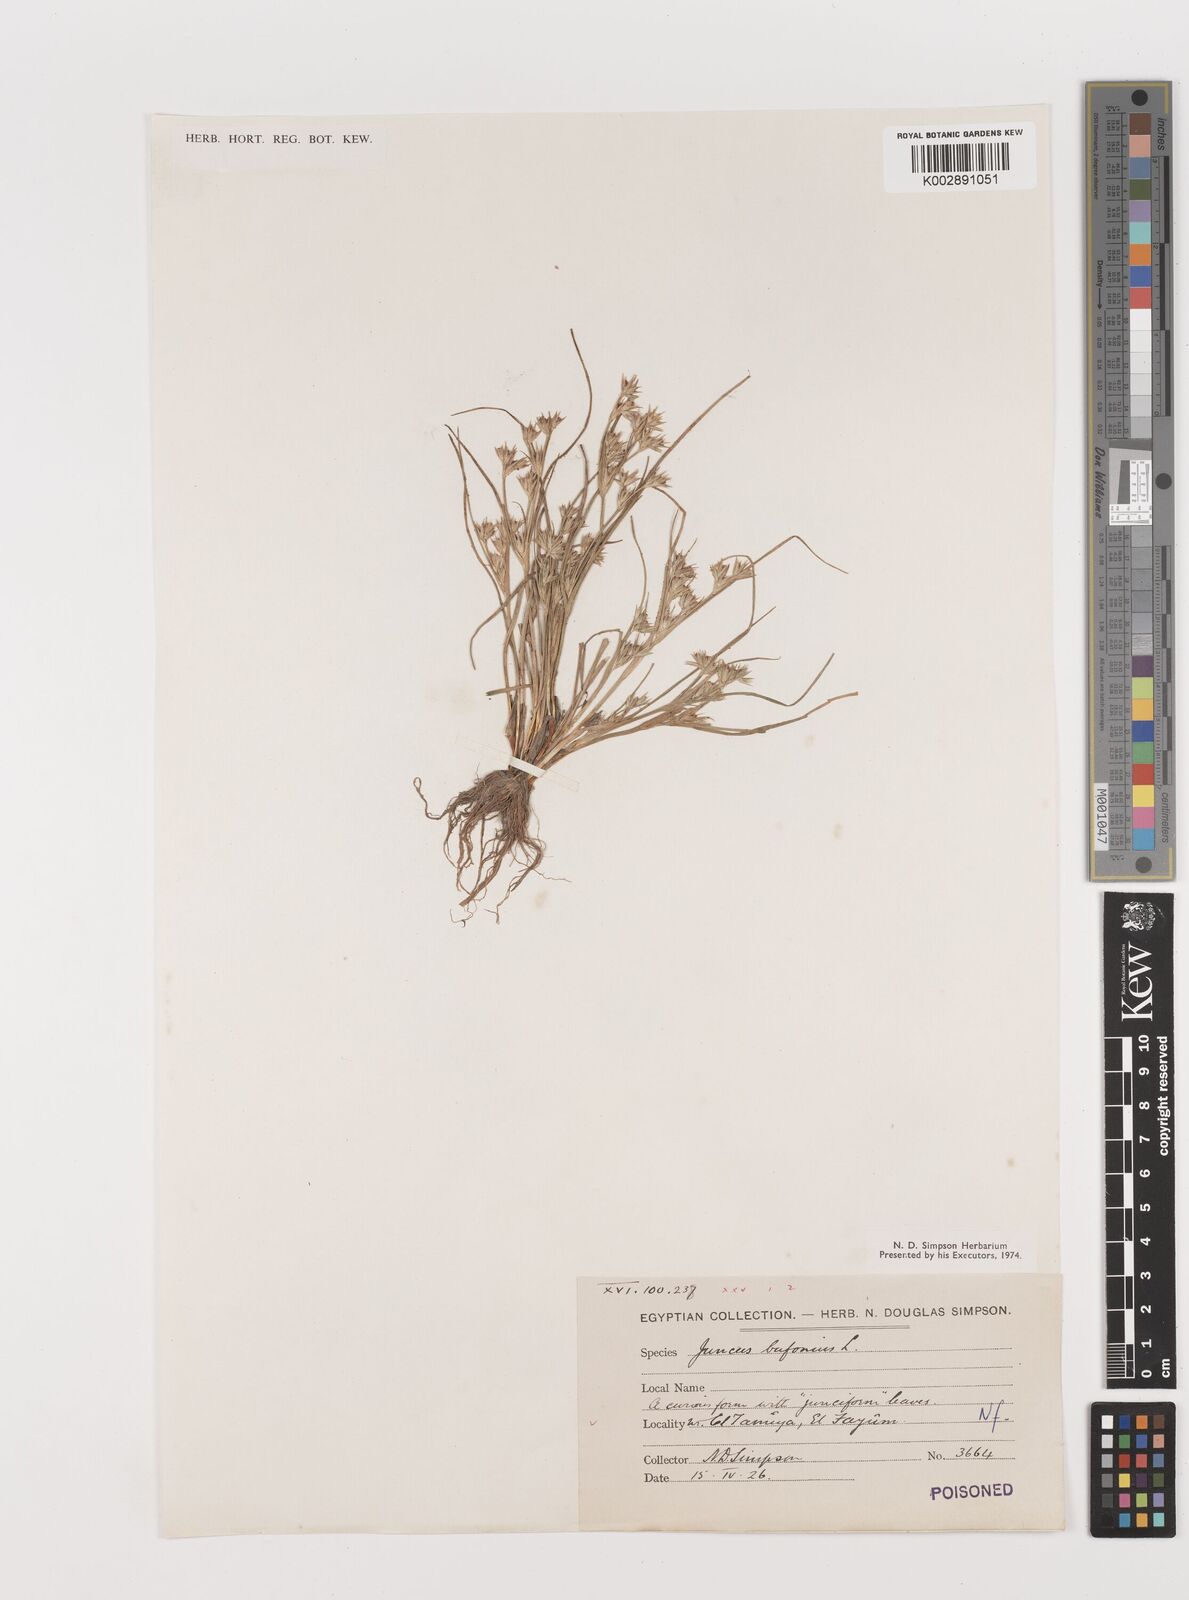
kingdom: Plantae
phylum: Tracheophyta
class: Liliopsida
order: Poales
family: Juncaceae
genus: Juncus
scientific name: Juncus bufonius
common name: Toad rush
